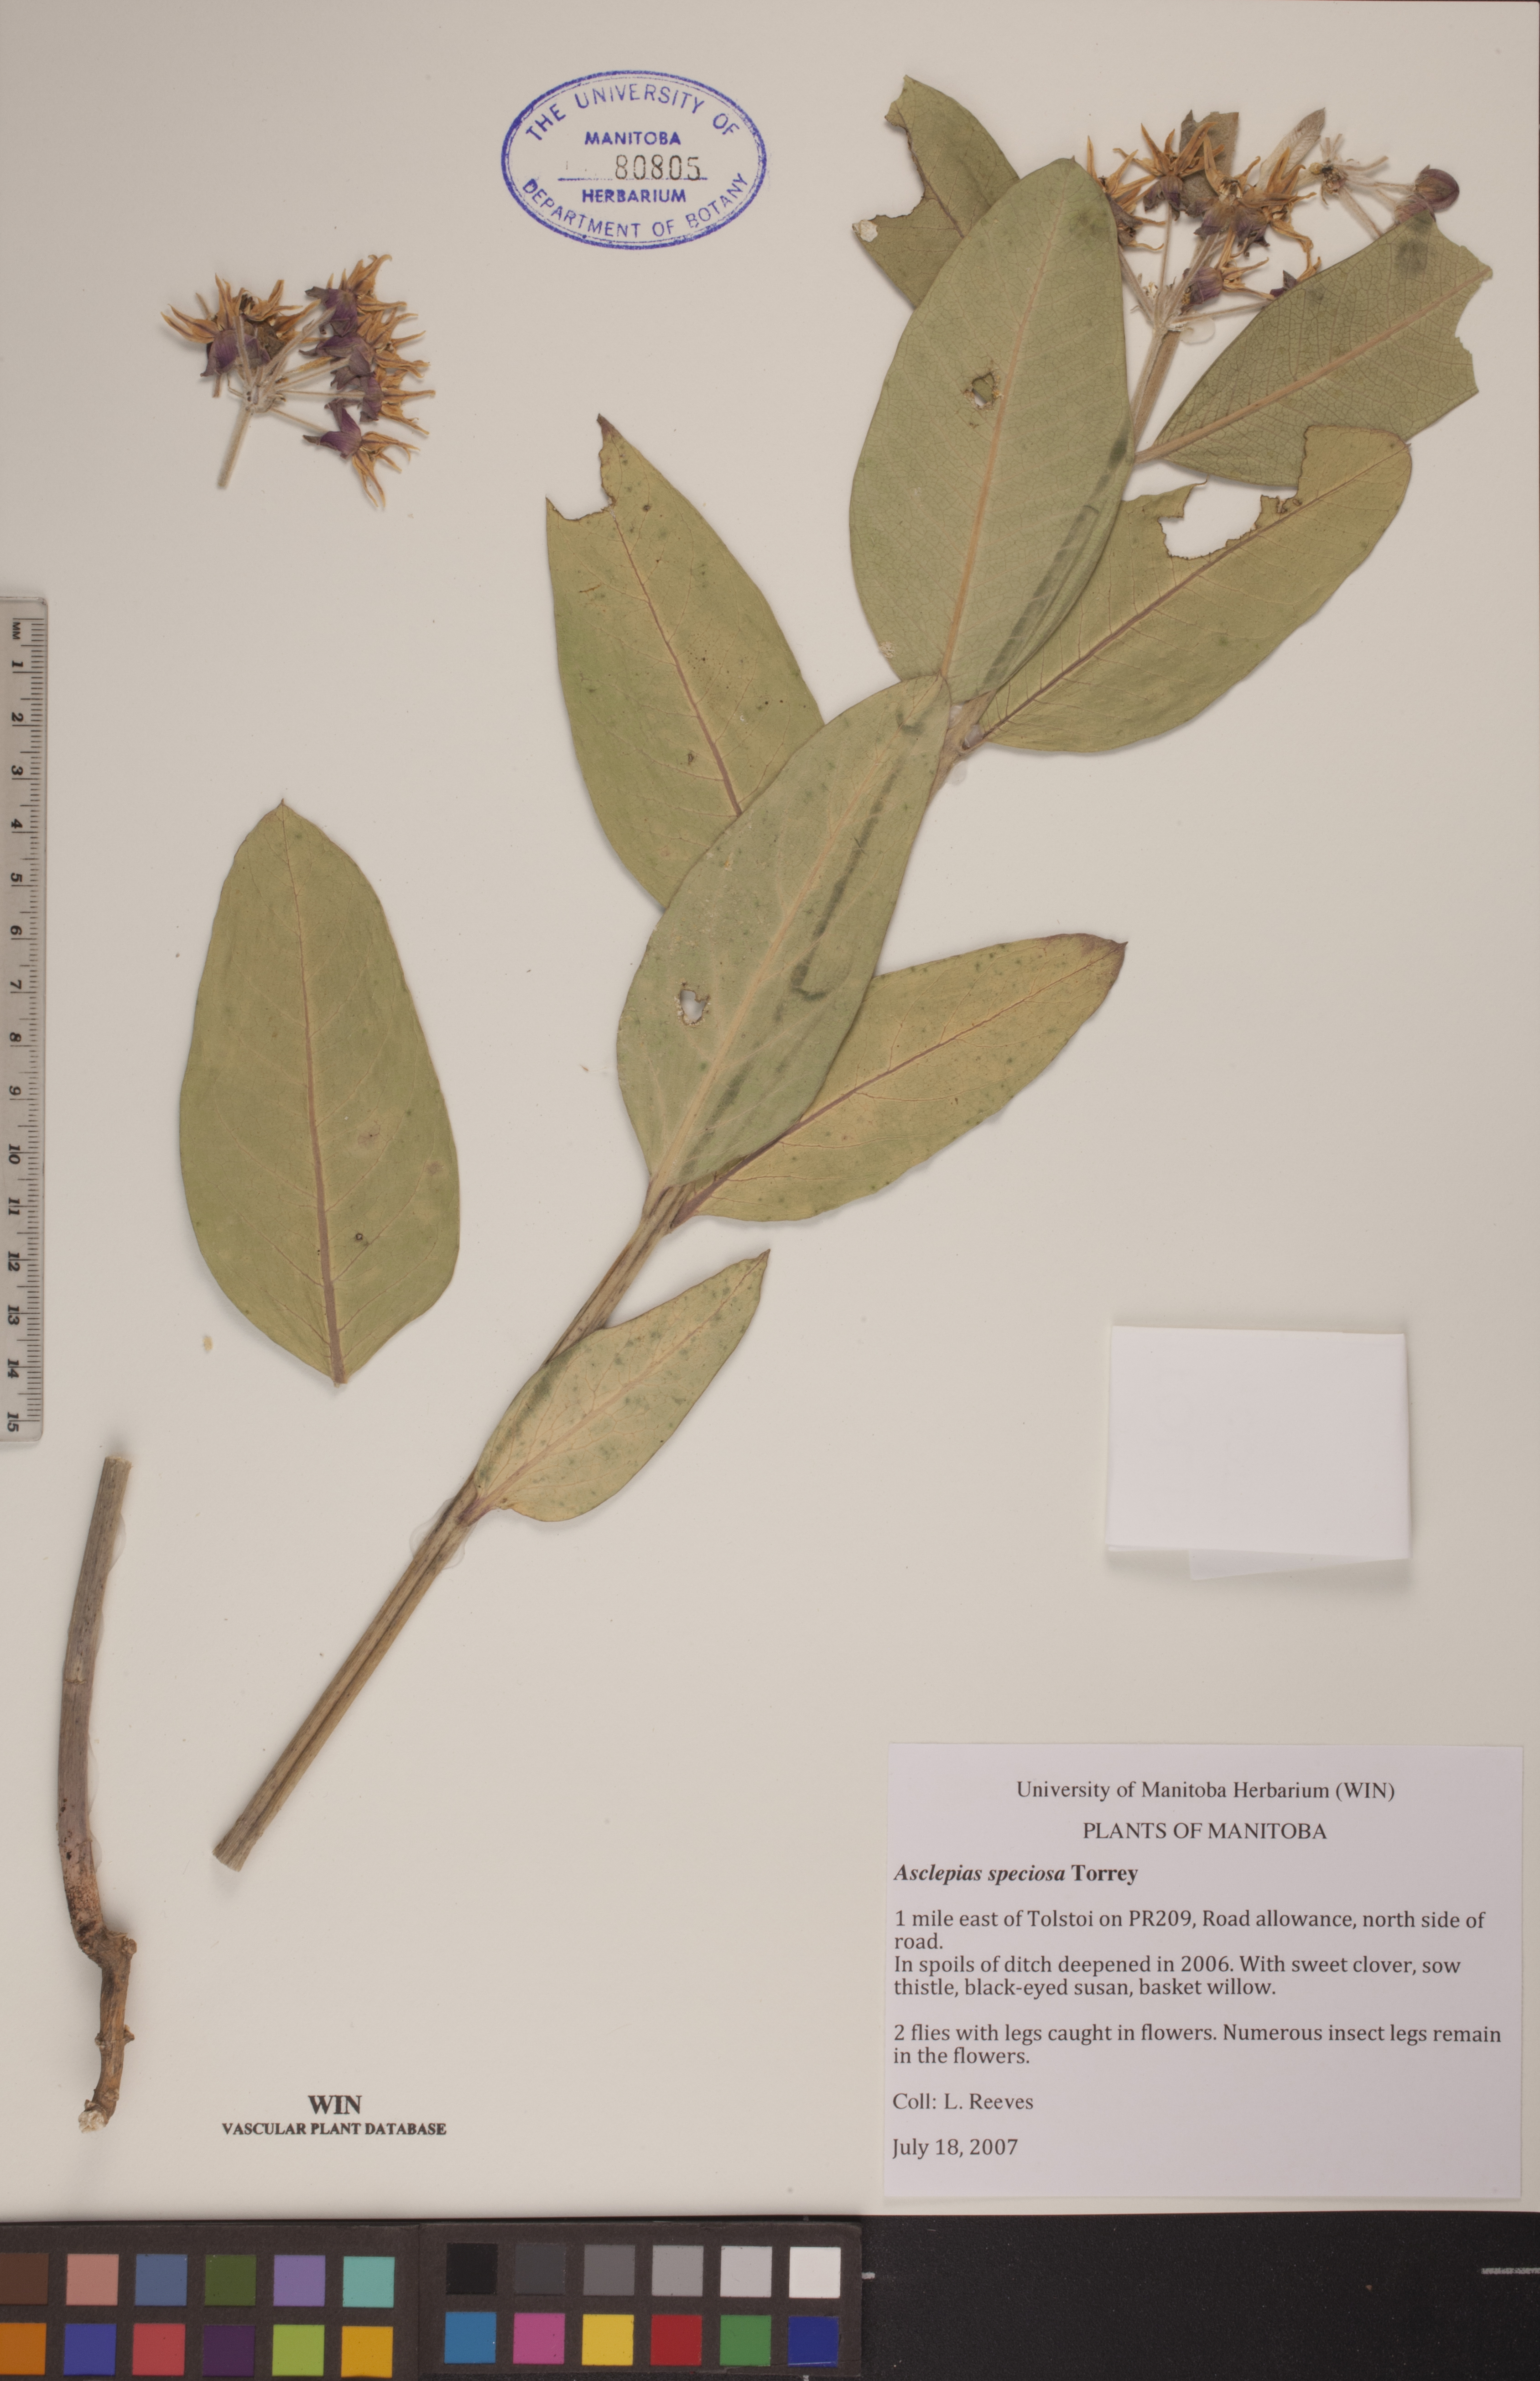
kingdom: Plantae
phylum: Tracheophyta
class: Magnoliopsida
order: Gentianales
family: Apocynaceae
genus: Asclepias
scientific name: Asclepias speciosa
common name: Showy milkweed
